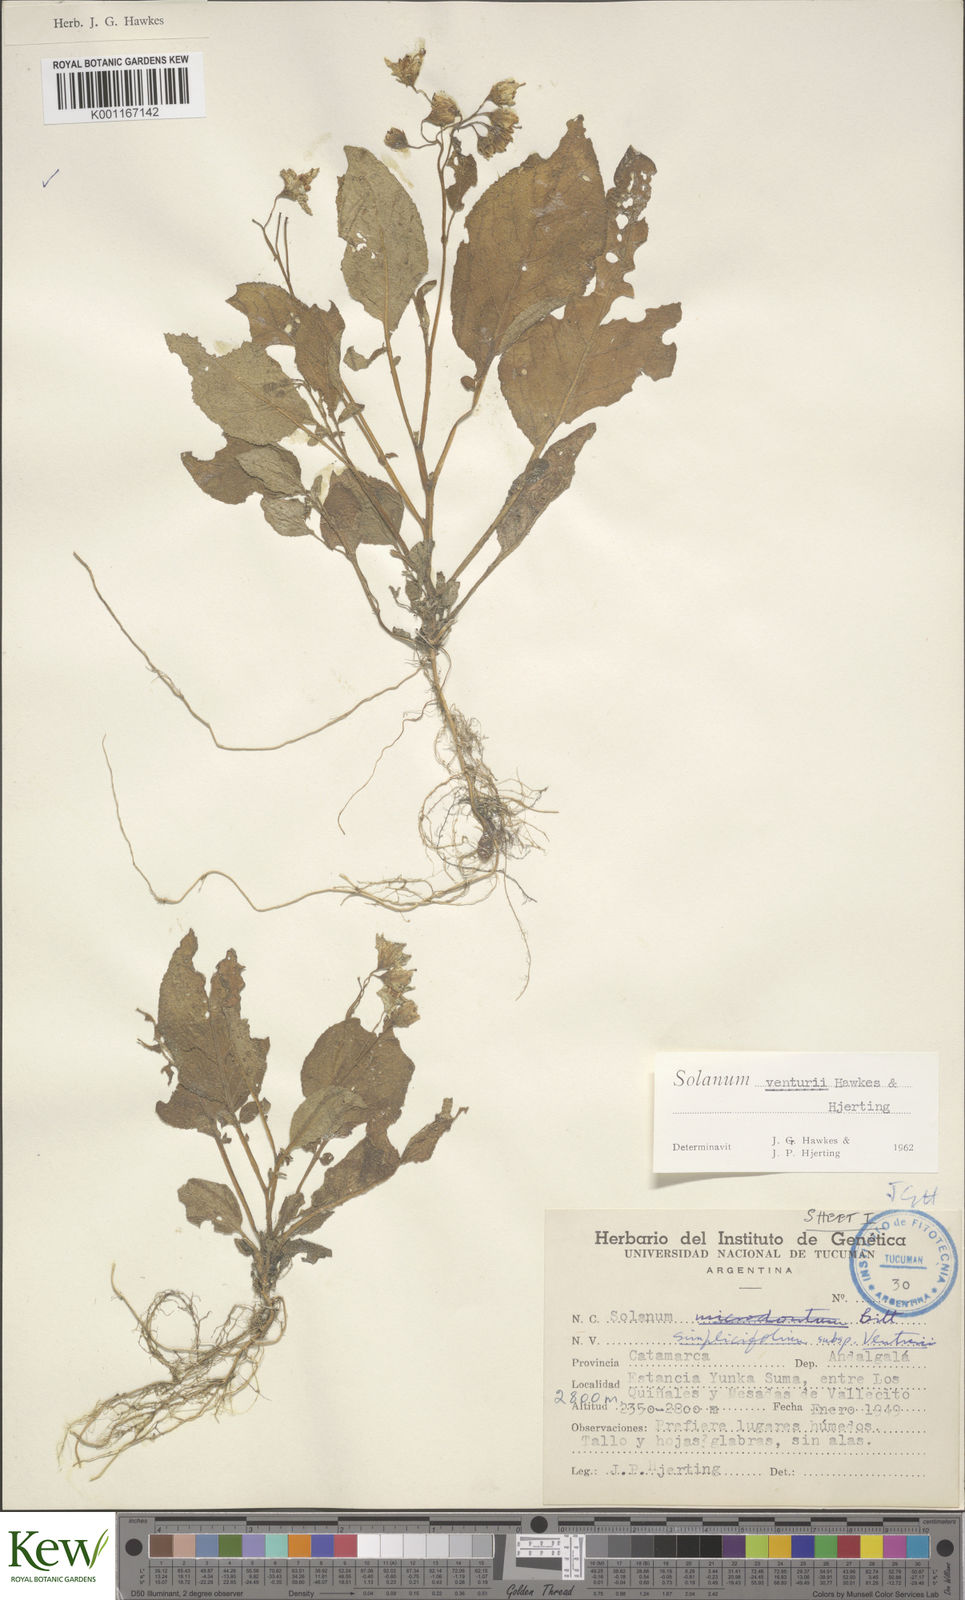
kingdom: Plantae
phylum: Tracheophyta
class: Magnoliopsida
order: Solanales
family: Solanaceae
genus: Solanum
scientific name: Solanum venturii
